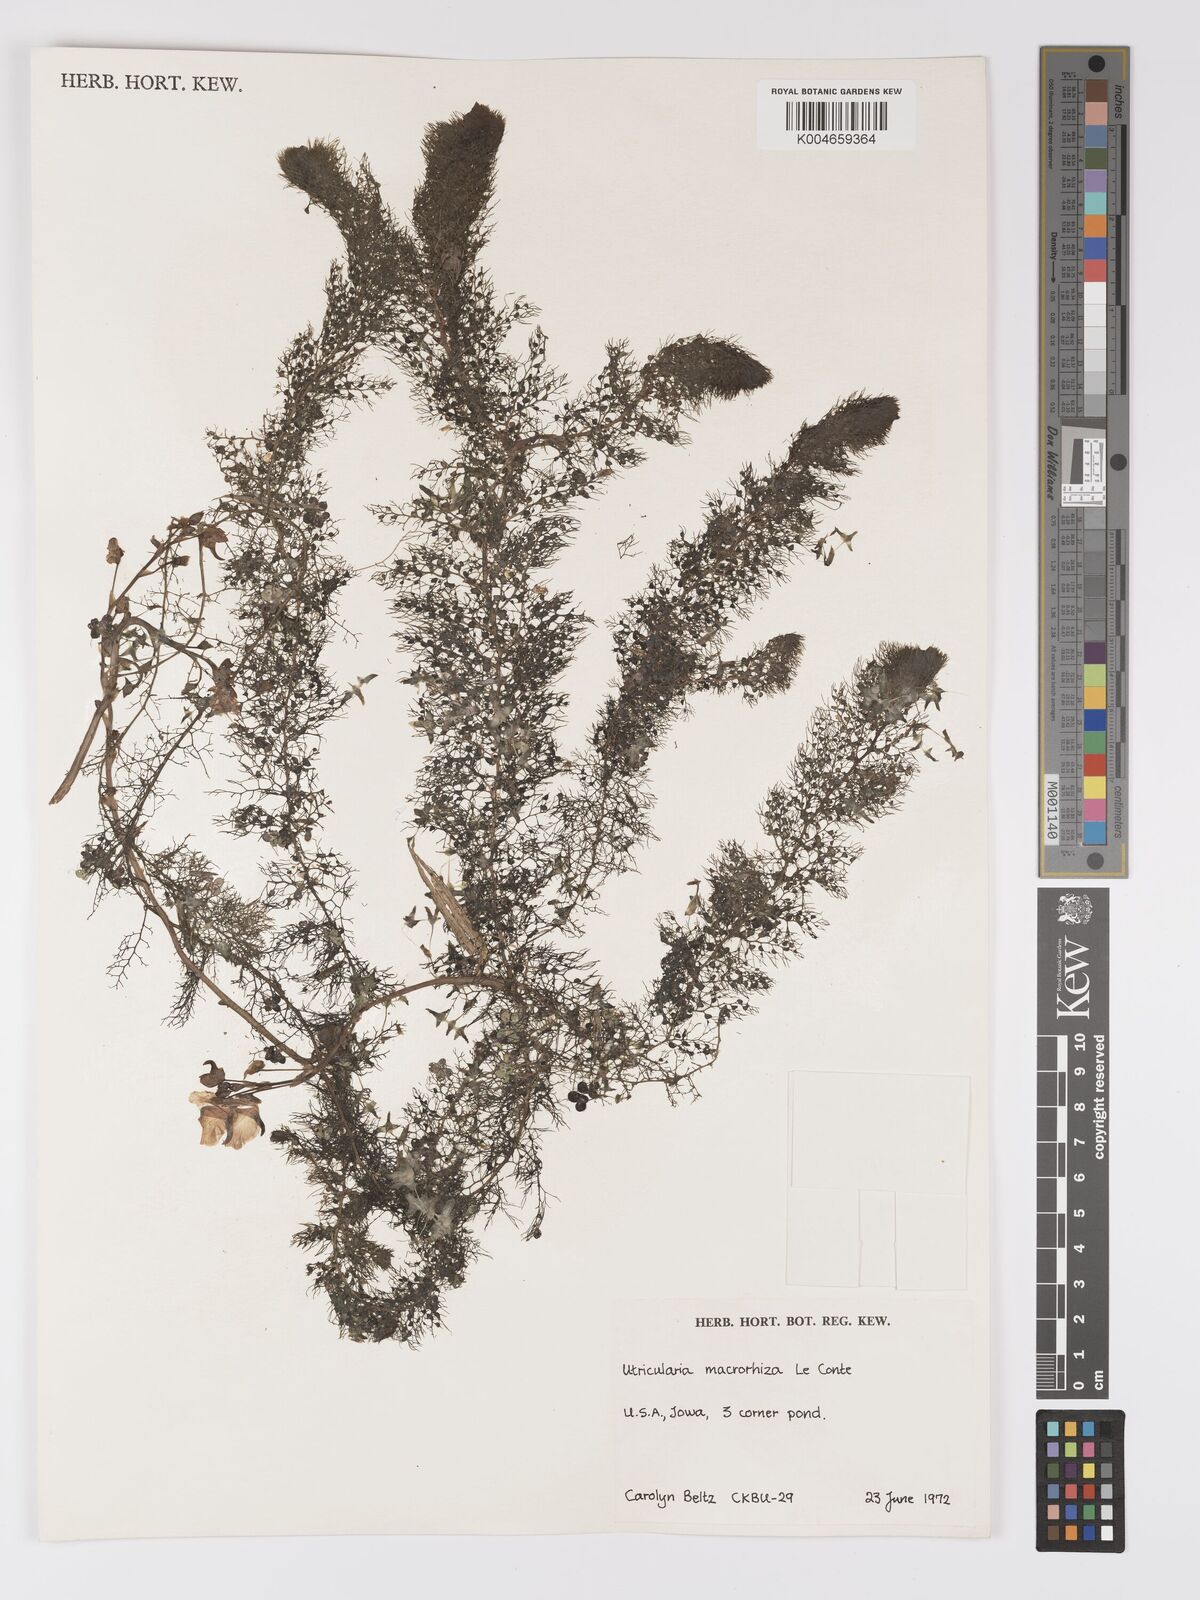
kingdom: Plantae
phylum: Tracheophyta
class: Magnoliopsida
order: Lamiales
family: Lentibulariaceae
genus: Utricularia
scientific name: Utricularia macrorhiza
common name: Common bladderwort
